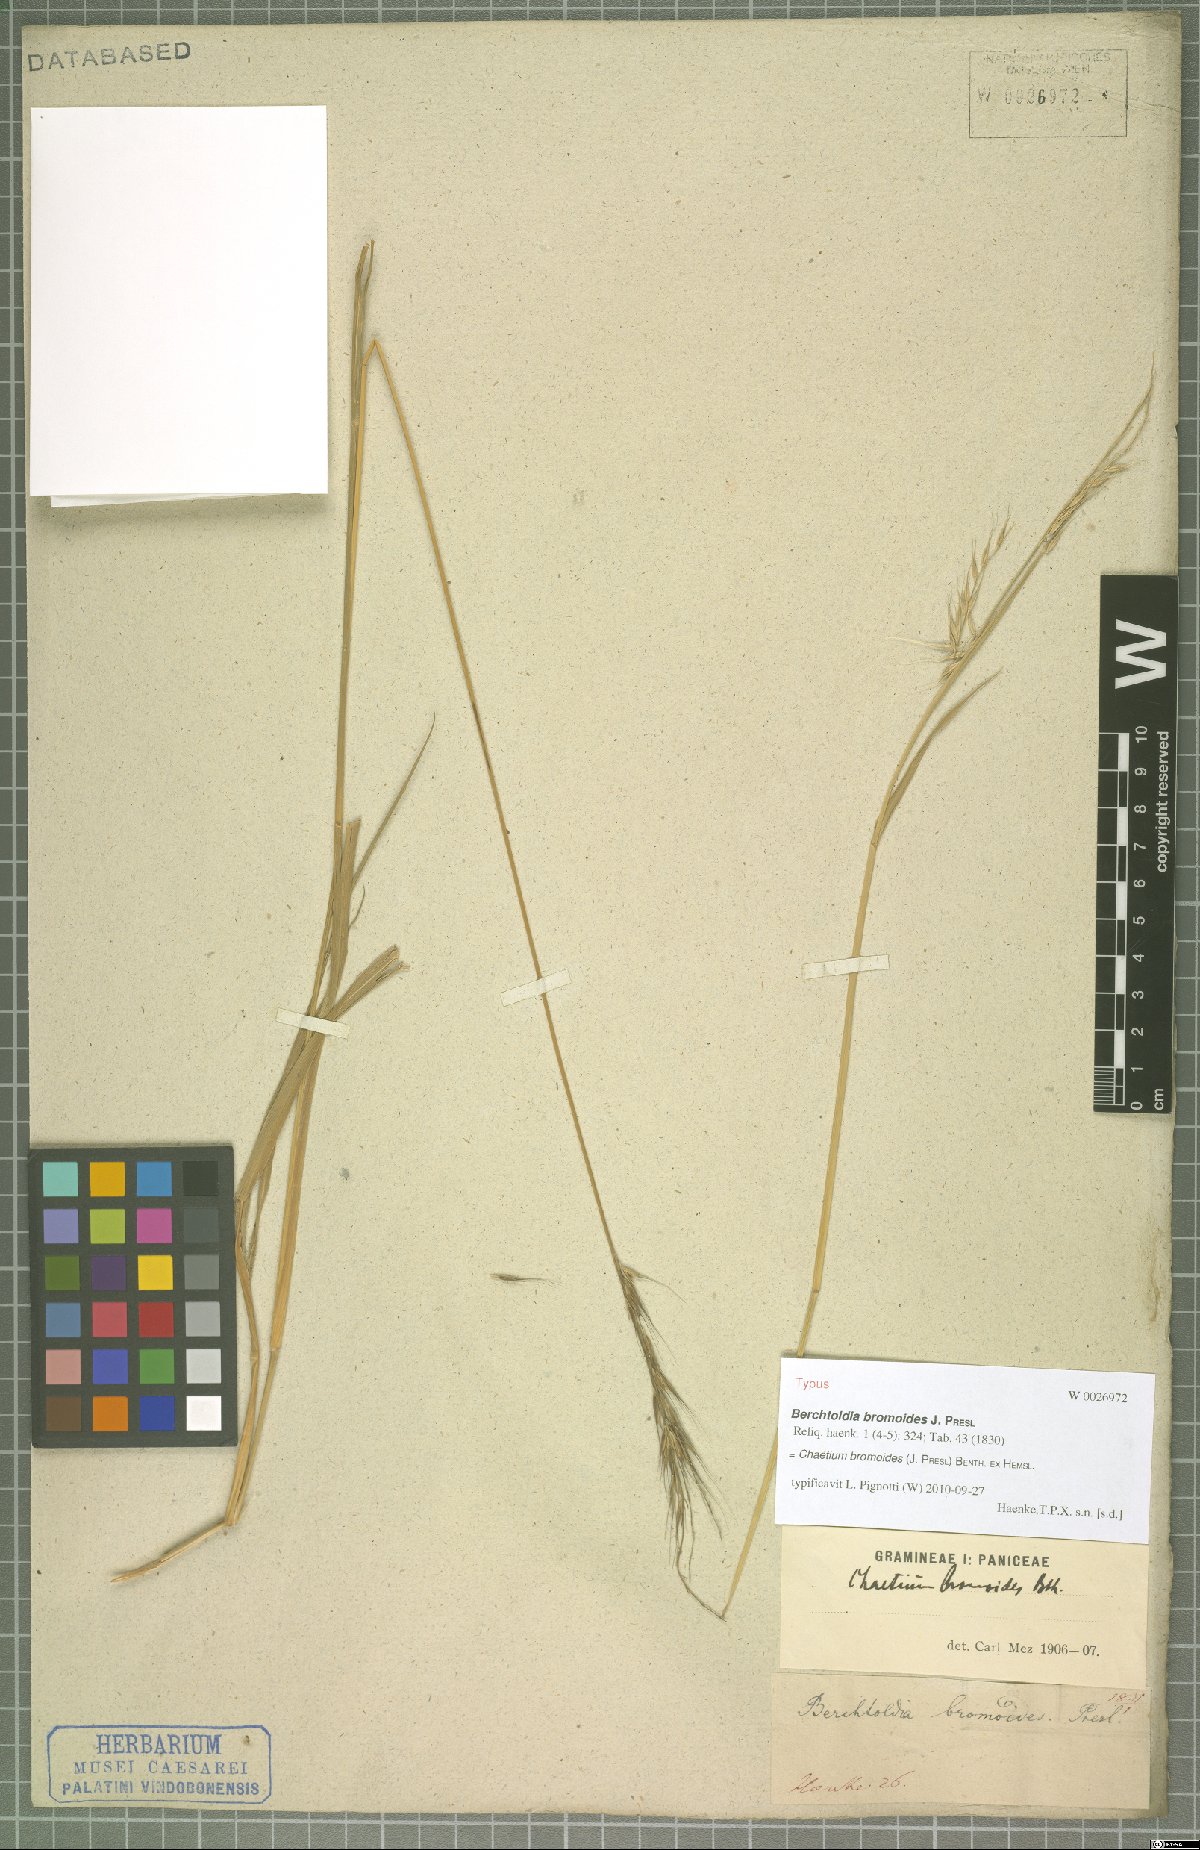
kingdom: Plantae
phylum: Tracheophyta
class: Liliopsida
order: Poales
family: Poaceae
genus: Chaetium
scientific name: Chaetium bromoides
